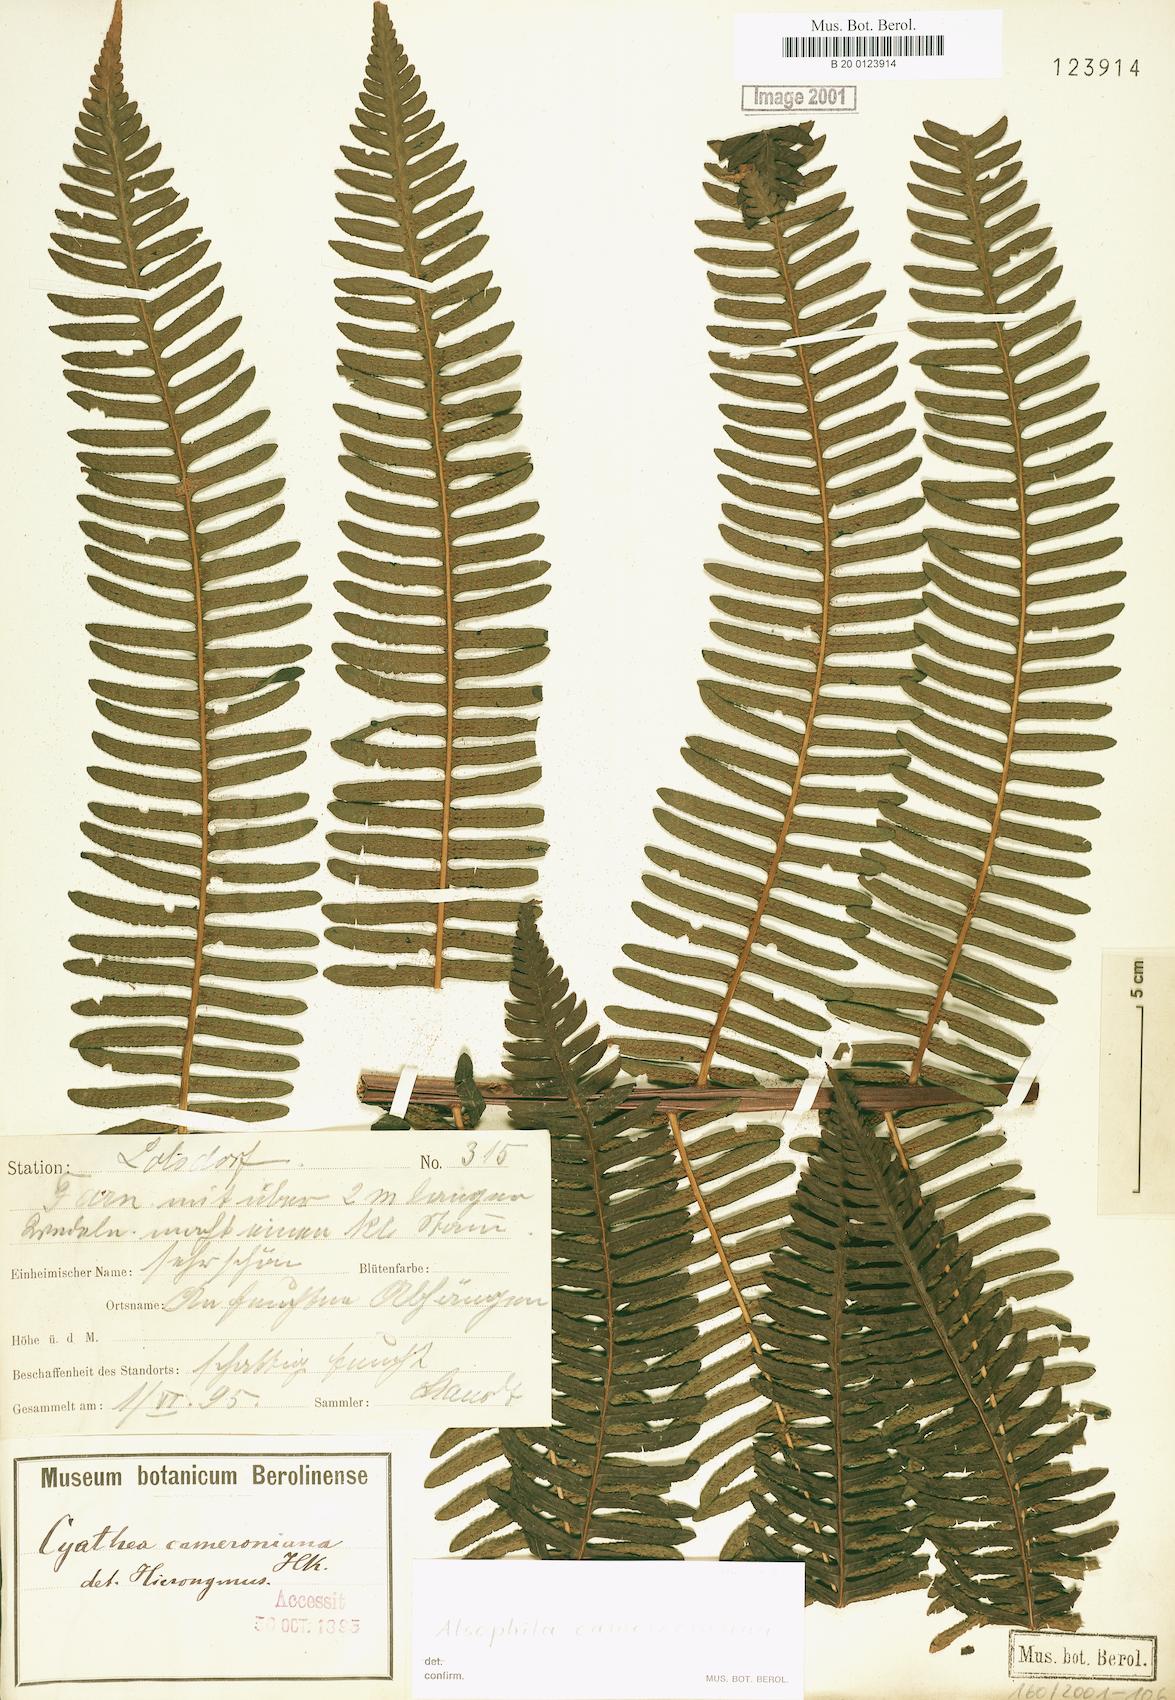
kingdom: Plantae
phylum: Tracheophyta
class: Polypodiopsida
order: Cyatheales
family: Cyatheaceae
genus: Alsophila
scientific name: Alsophila camerooniana
